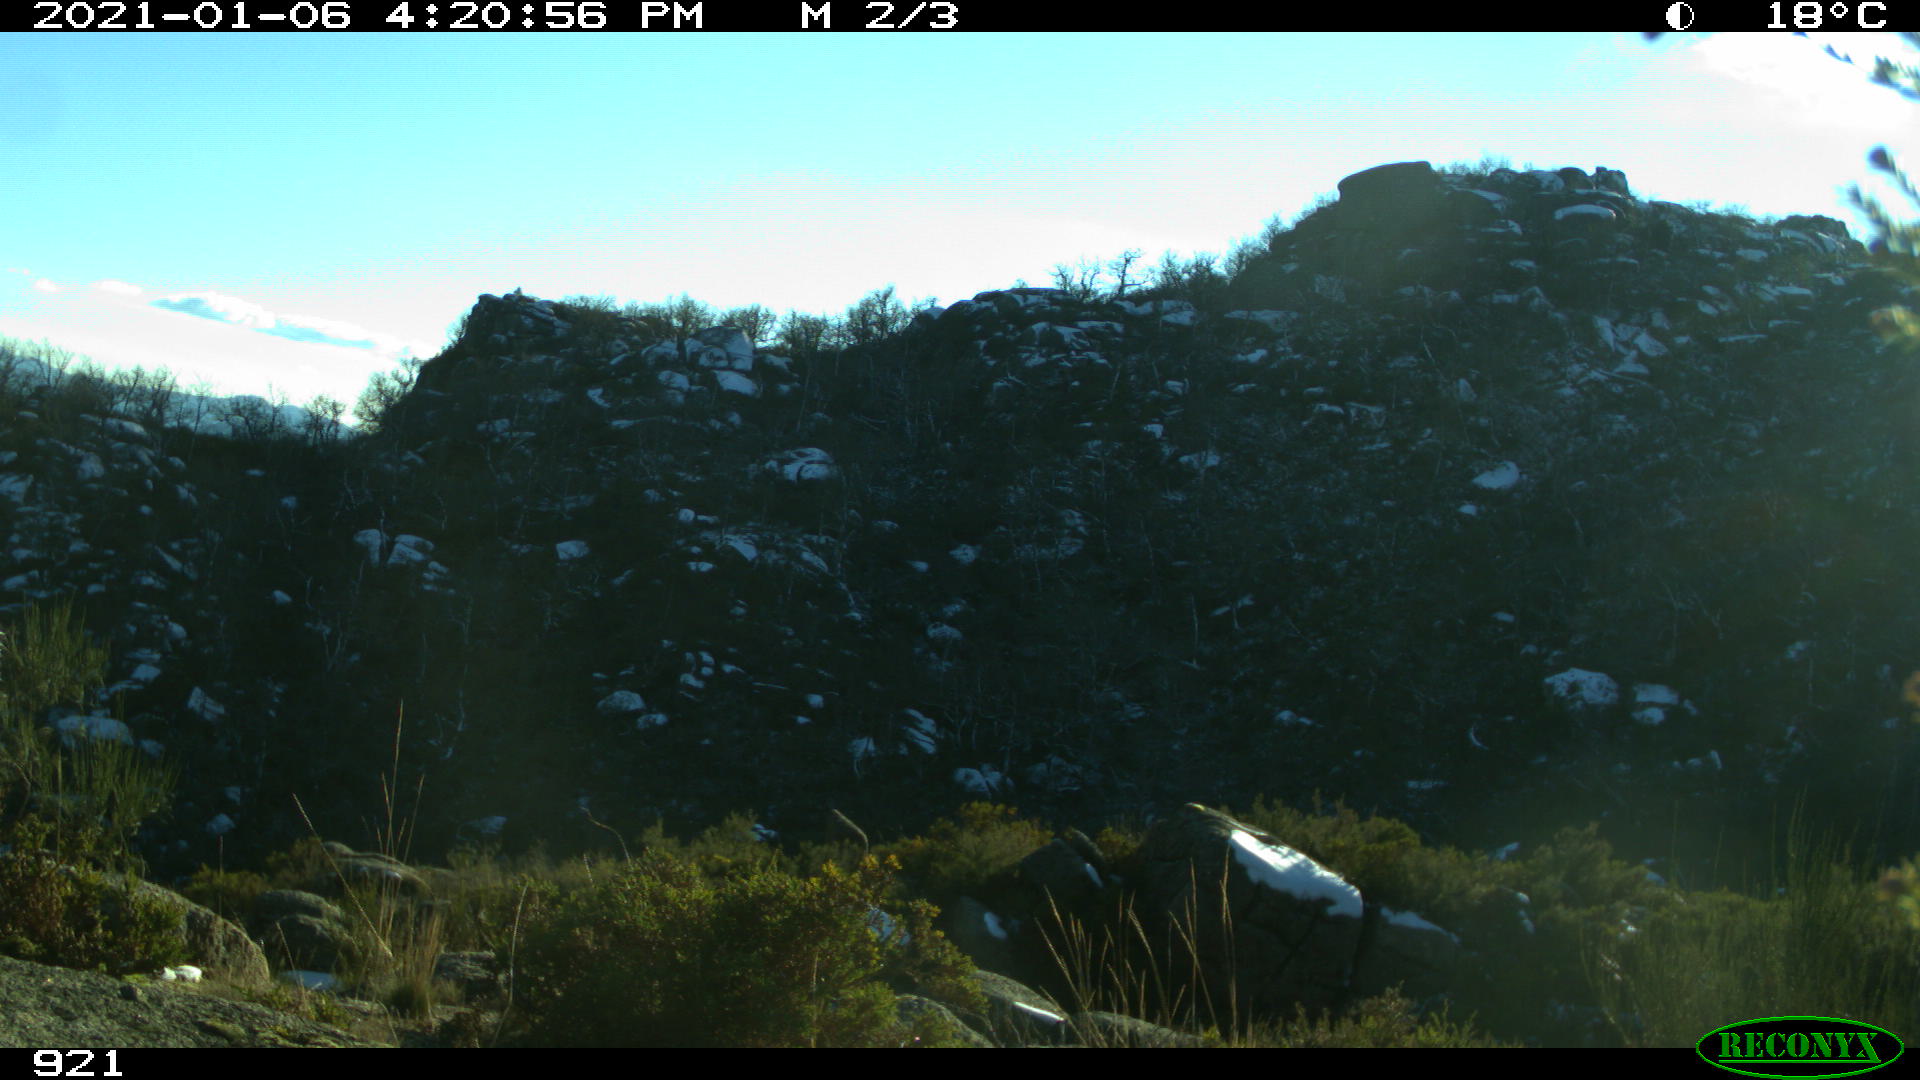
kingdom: Animalia
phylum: Chordata
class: Mammalia
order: Artiodactyla
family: Cervidae
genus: Capreolus
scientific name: Capreolus capreolus
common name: Western roe deer
